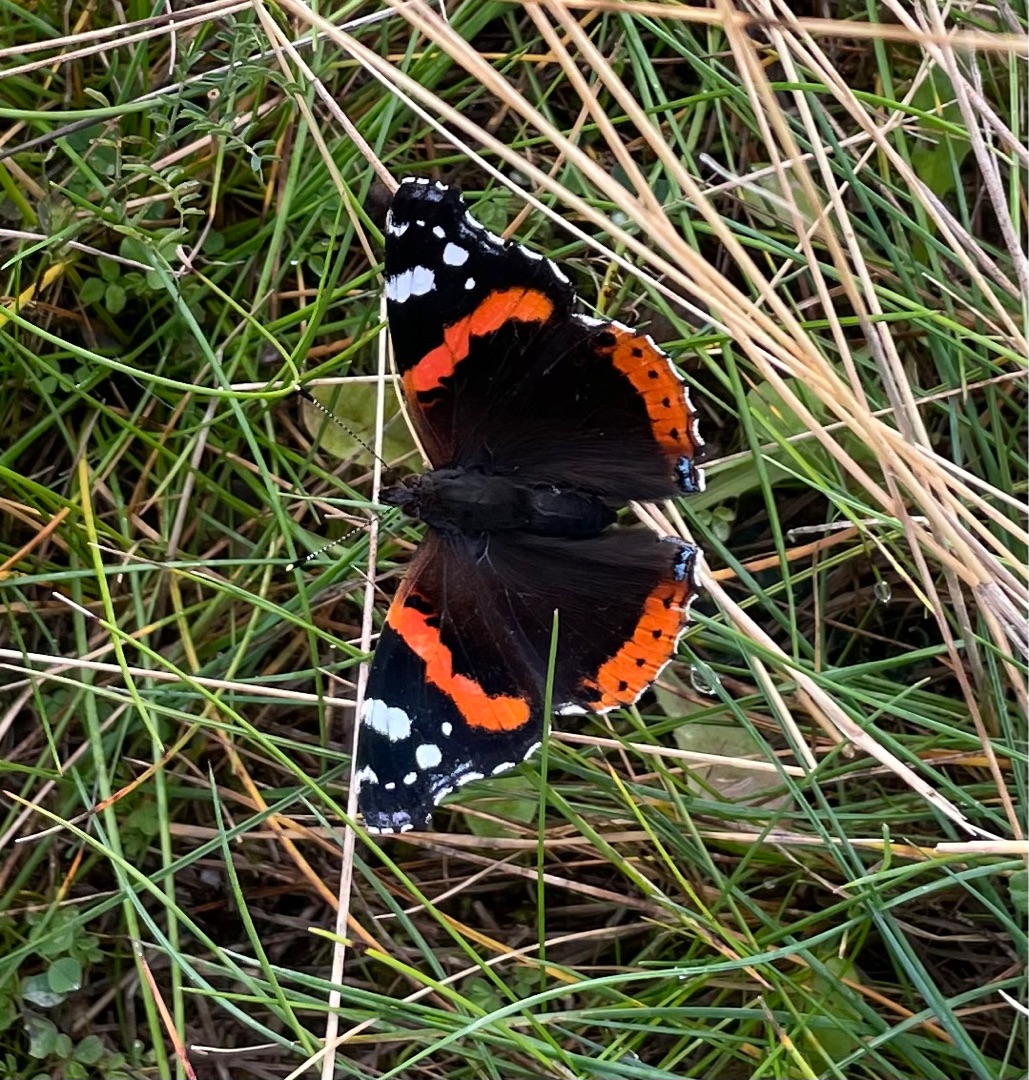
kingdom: Animalia
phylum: Arthropoda
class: Insecta
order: Lepidoptera
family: Nymphalidae
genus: Vanessa
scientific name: Vanessa atalanta
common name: Admiral
